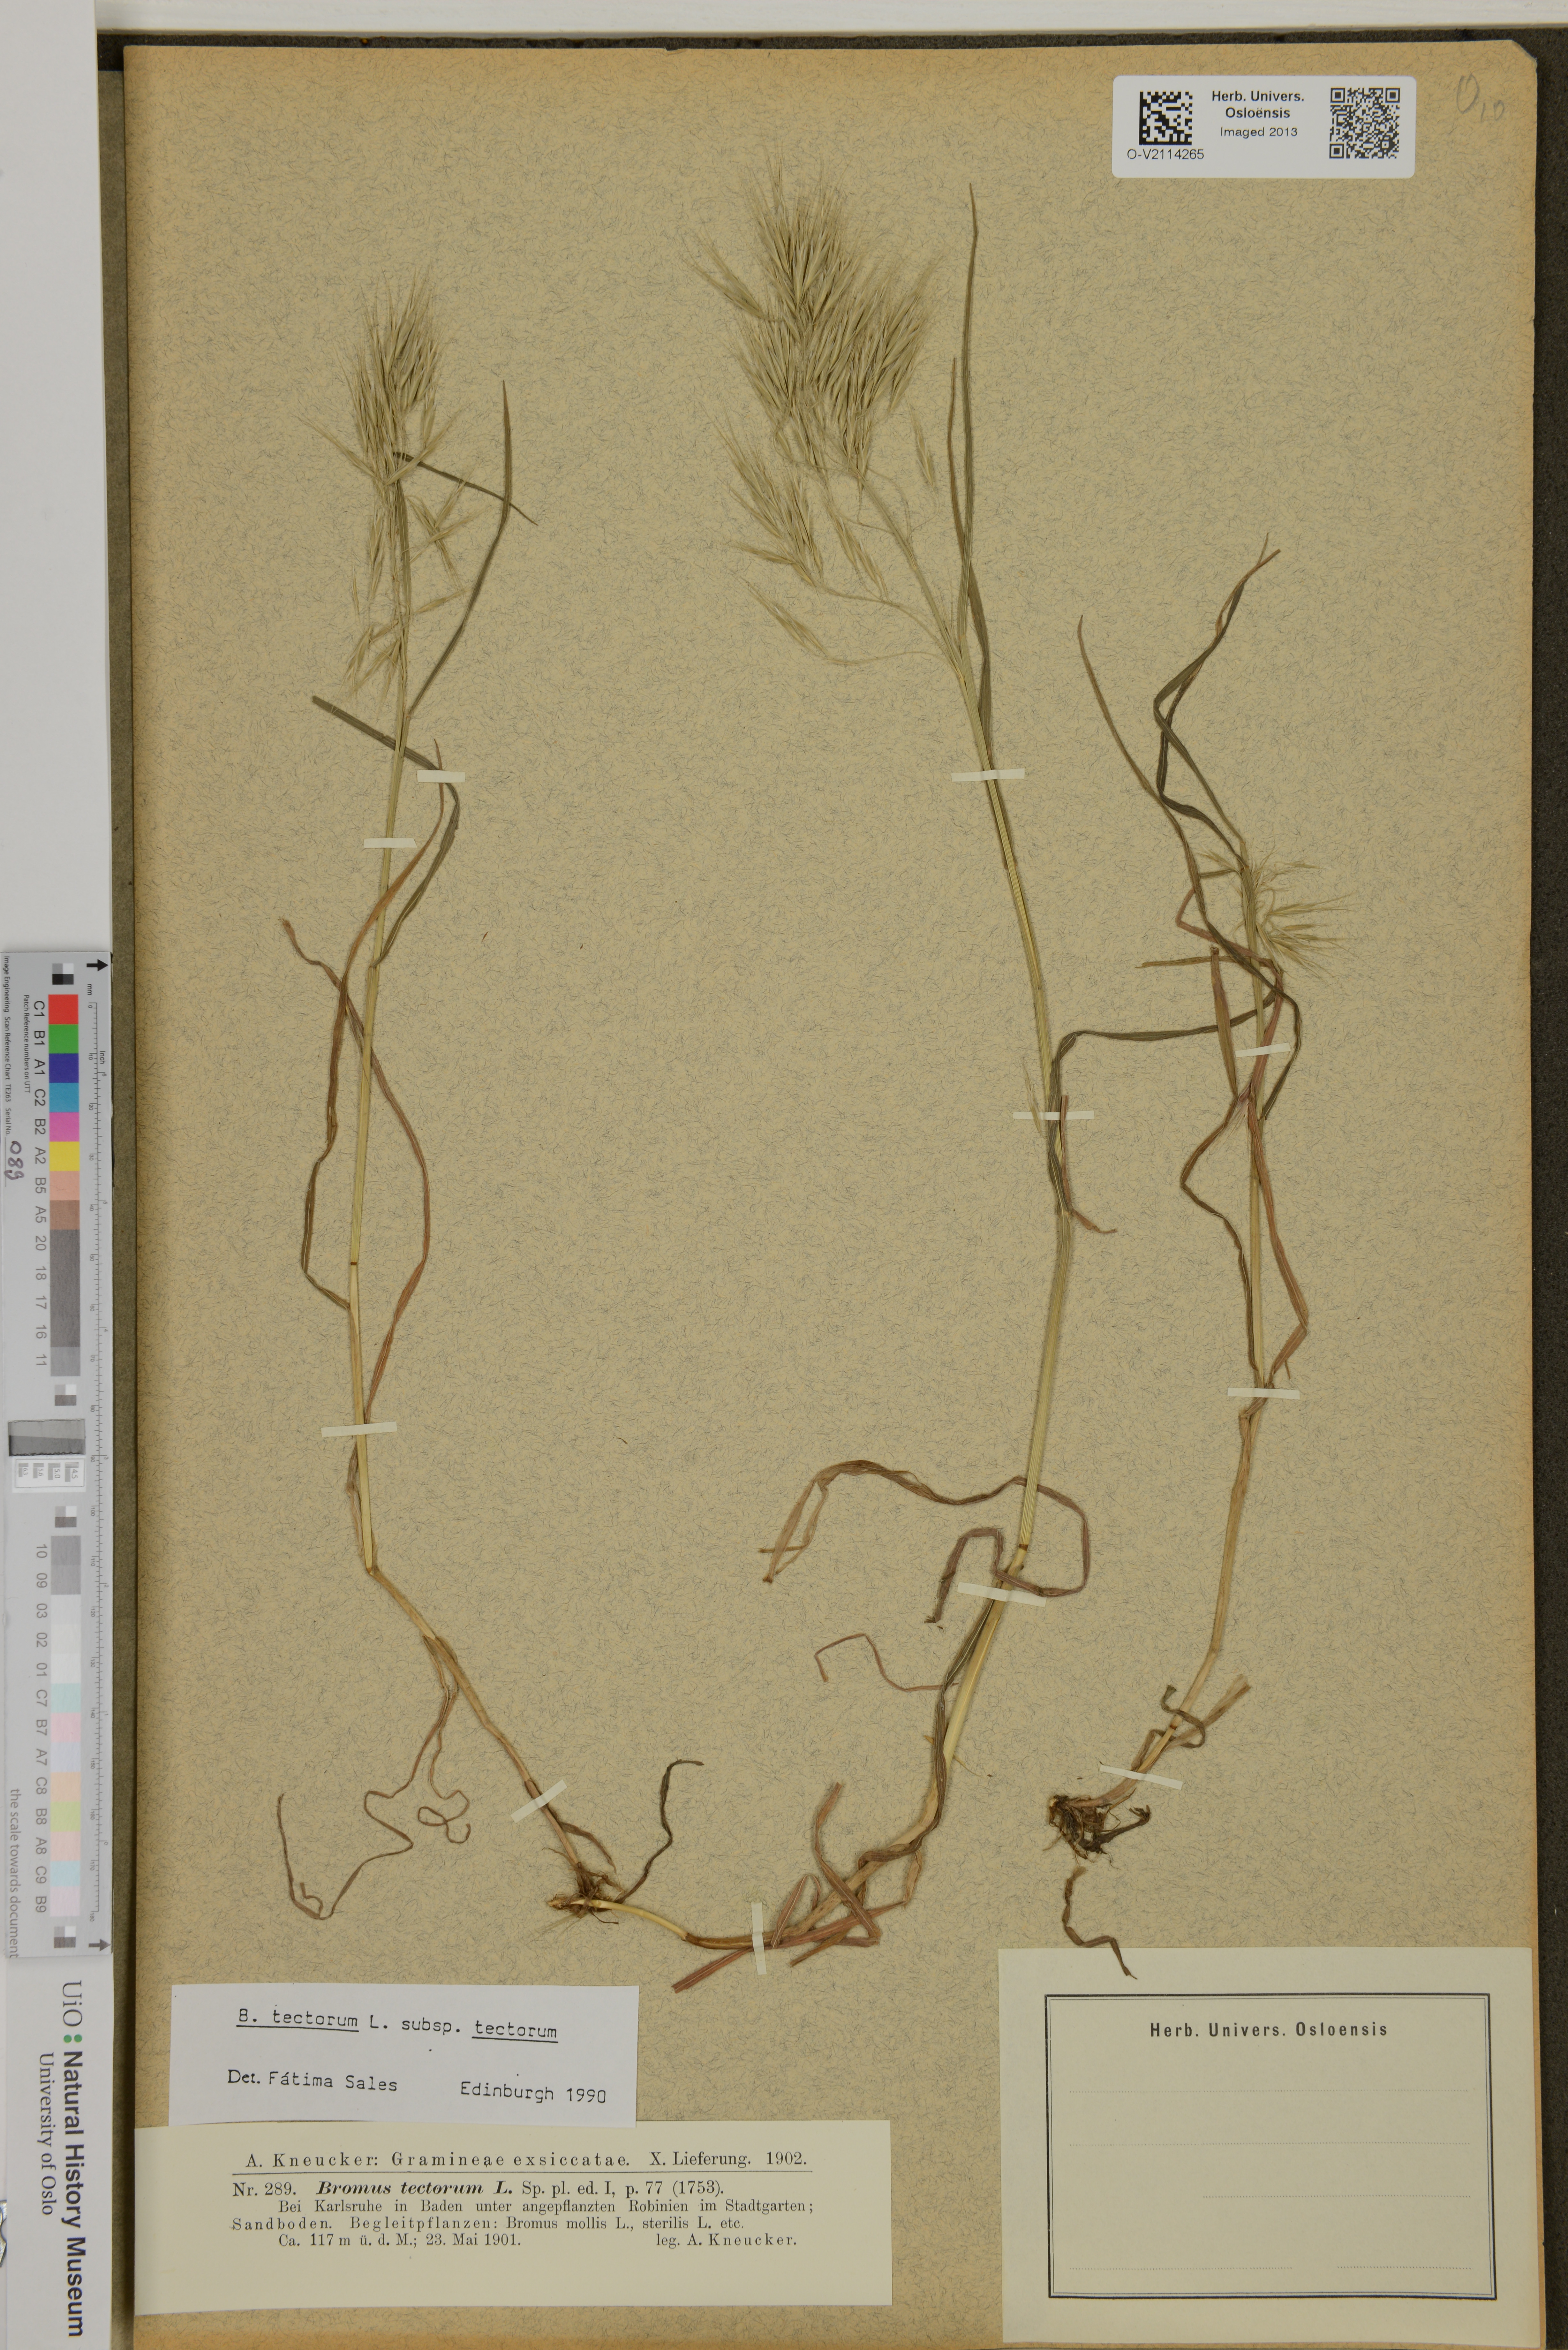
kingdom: Plantae
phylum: Tracheophyta
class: Liliopsida
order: Poales
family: Poaceae
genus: Bromus
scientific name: Bromus tectorum
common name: Cheatgrass
